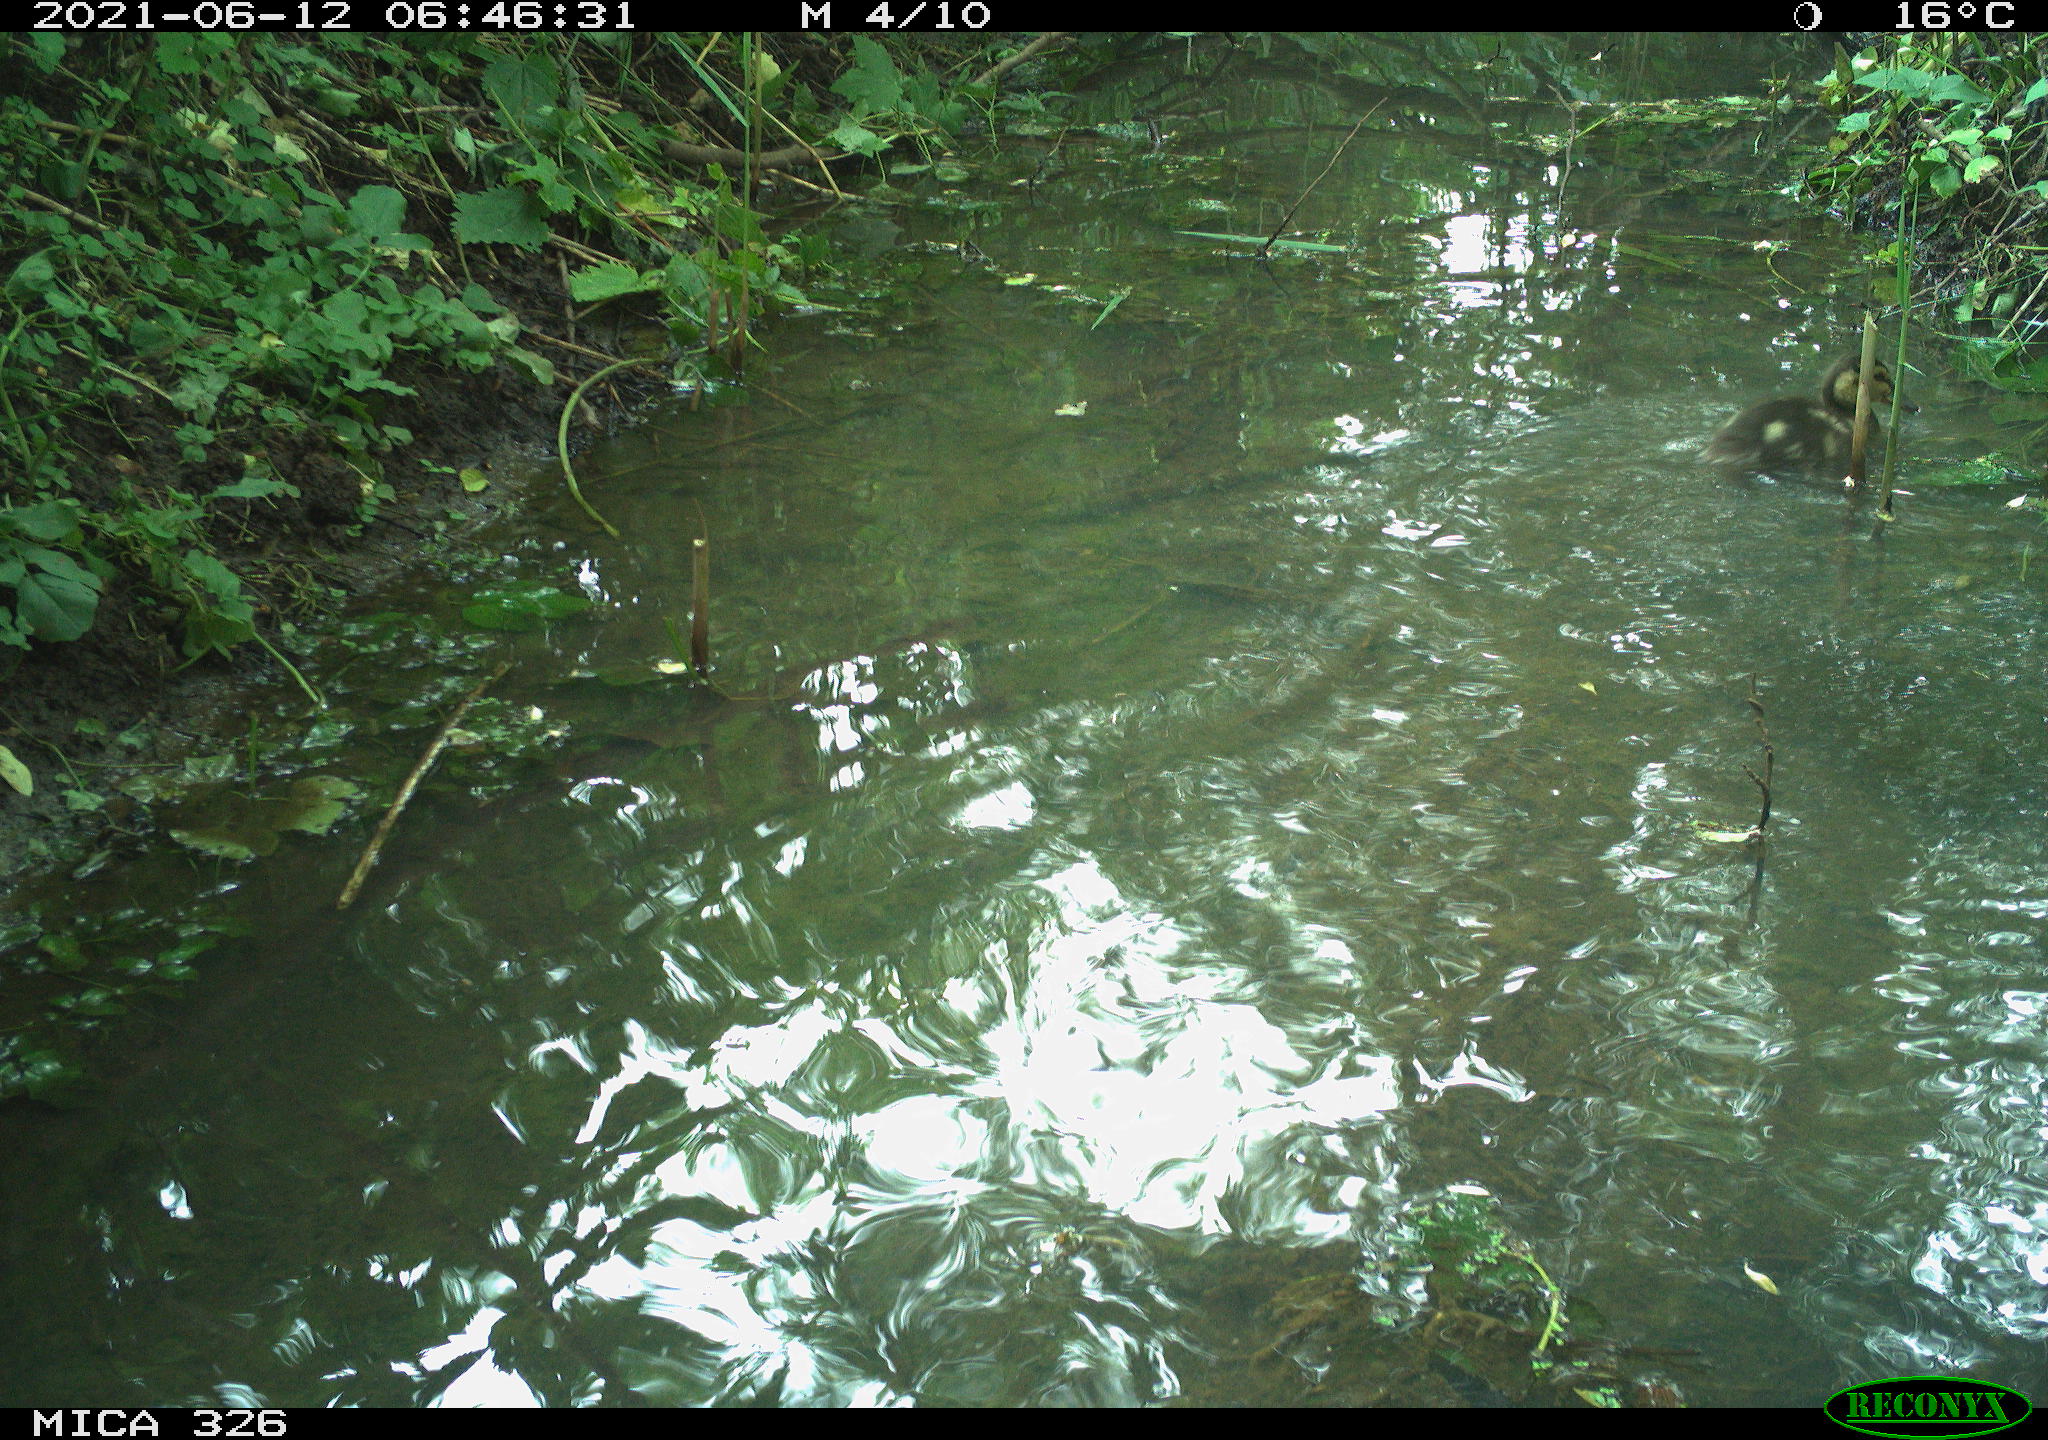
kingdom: Animalia
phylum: Chordata
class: Aves
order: Anseriformes
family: Anatidae
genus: Anas
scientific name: Anas platyrhynchos
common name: Mallard
